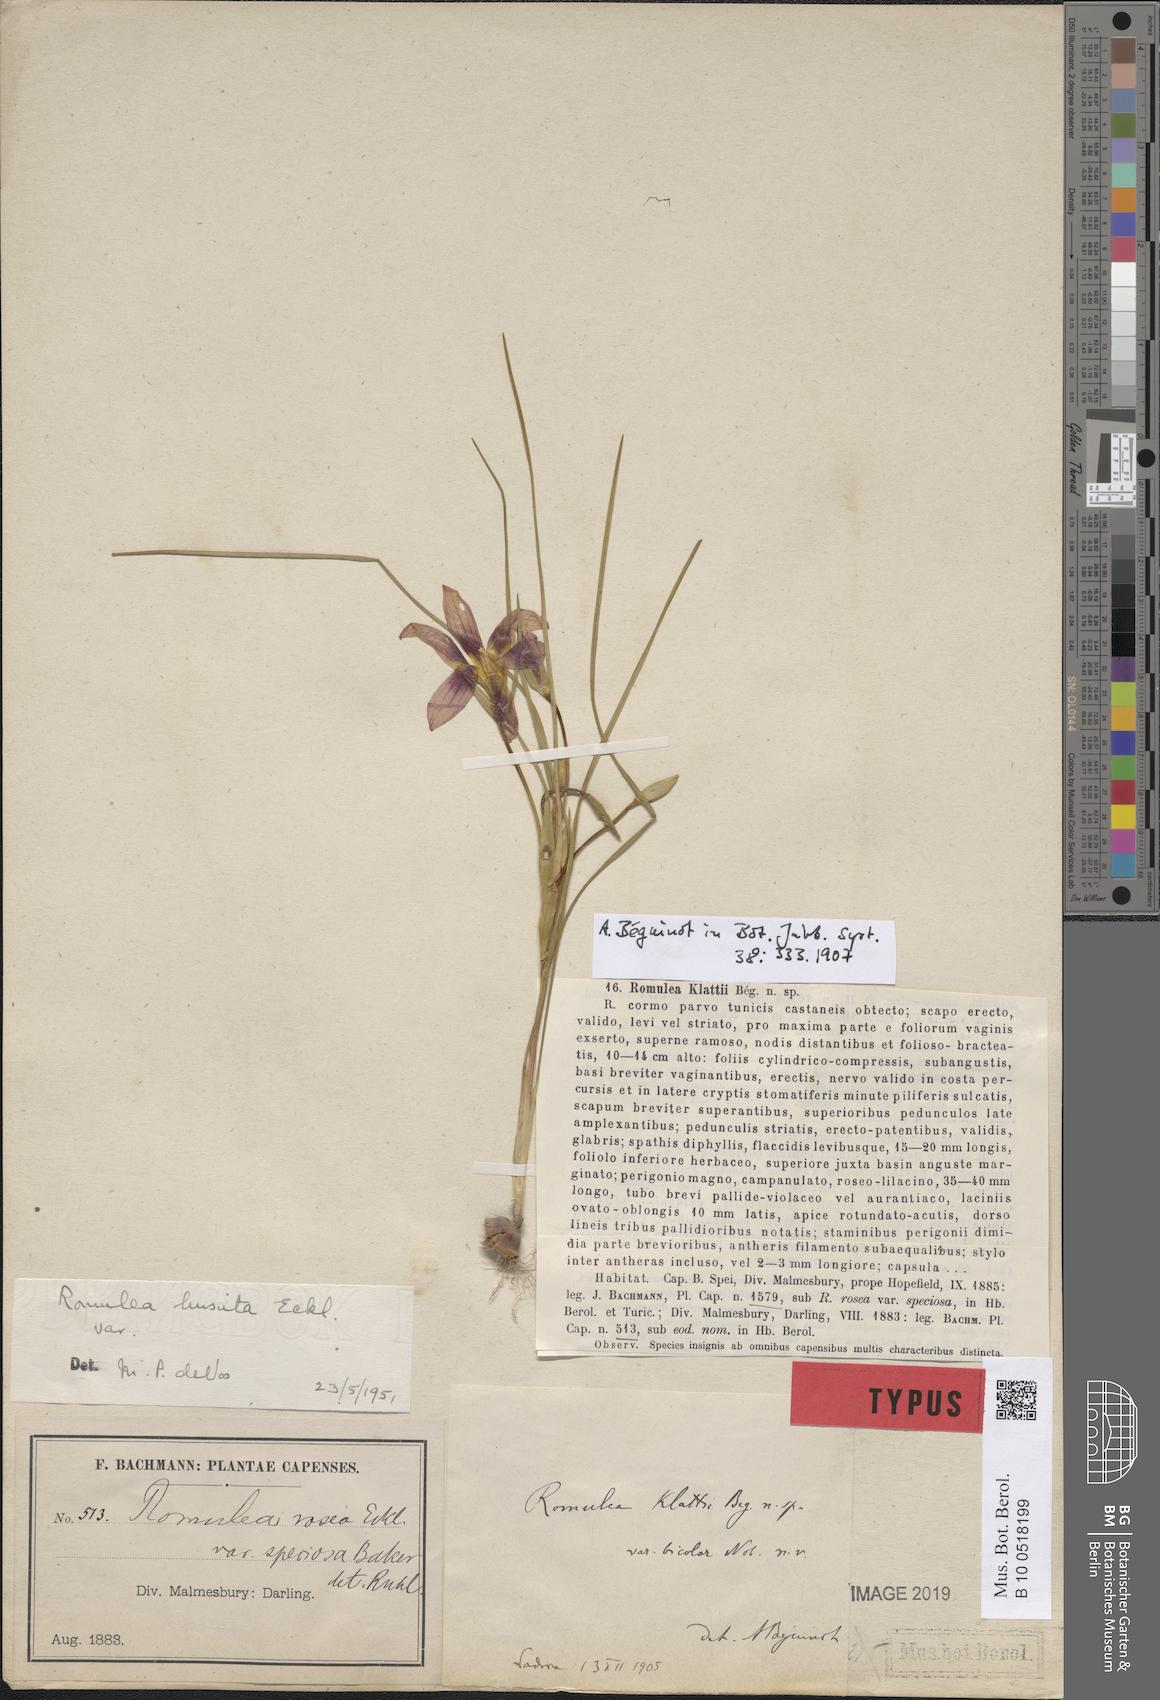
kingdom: Plantae
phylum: Tracheophyta
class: Liliopsida
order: Asparagales
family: Iridaceae
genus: Romulea
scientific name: Romulea hirsuta
